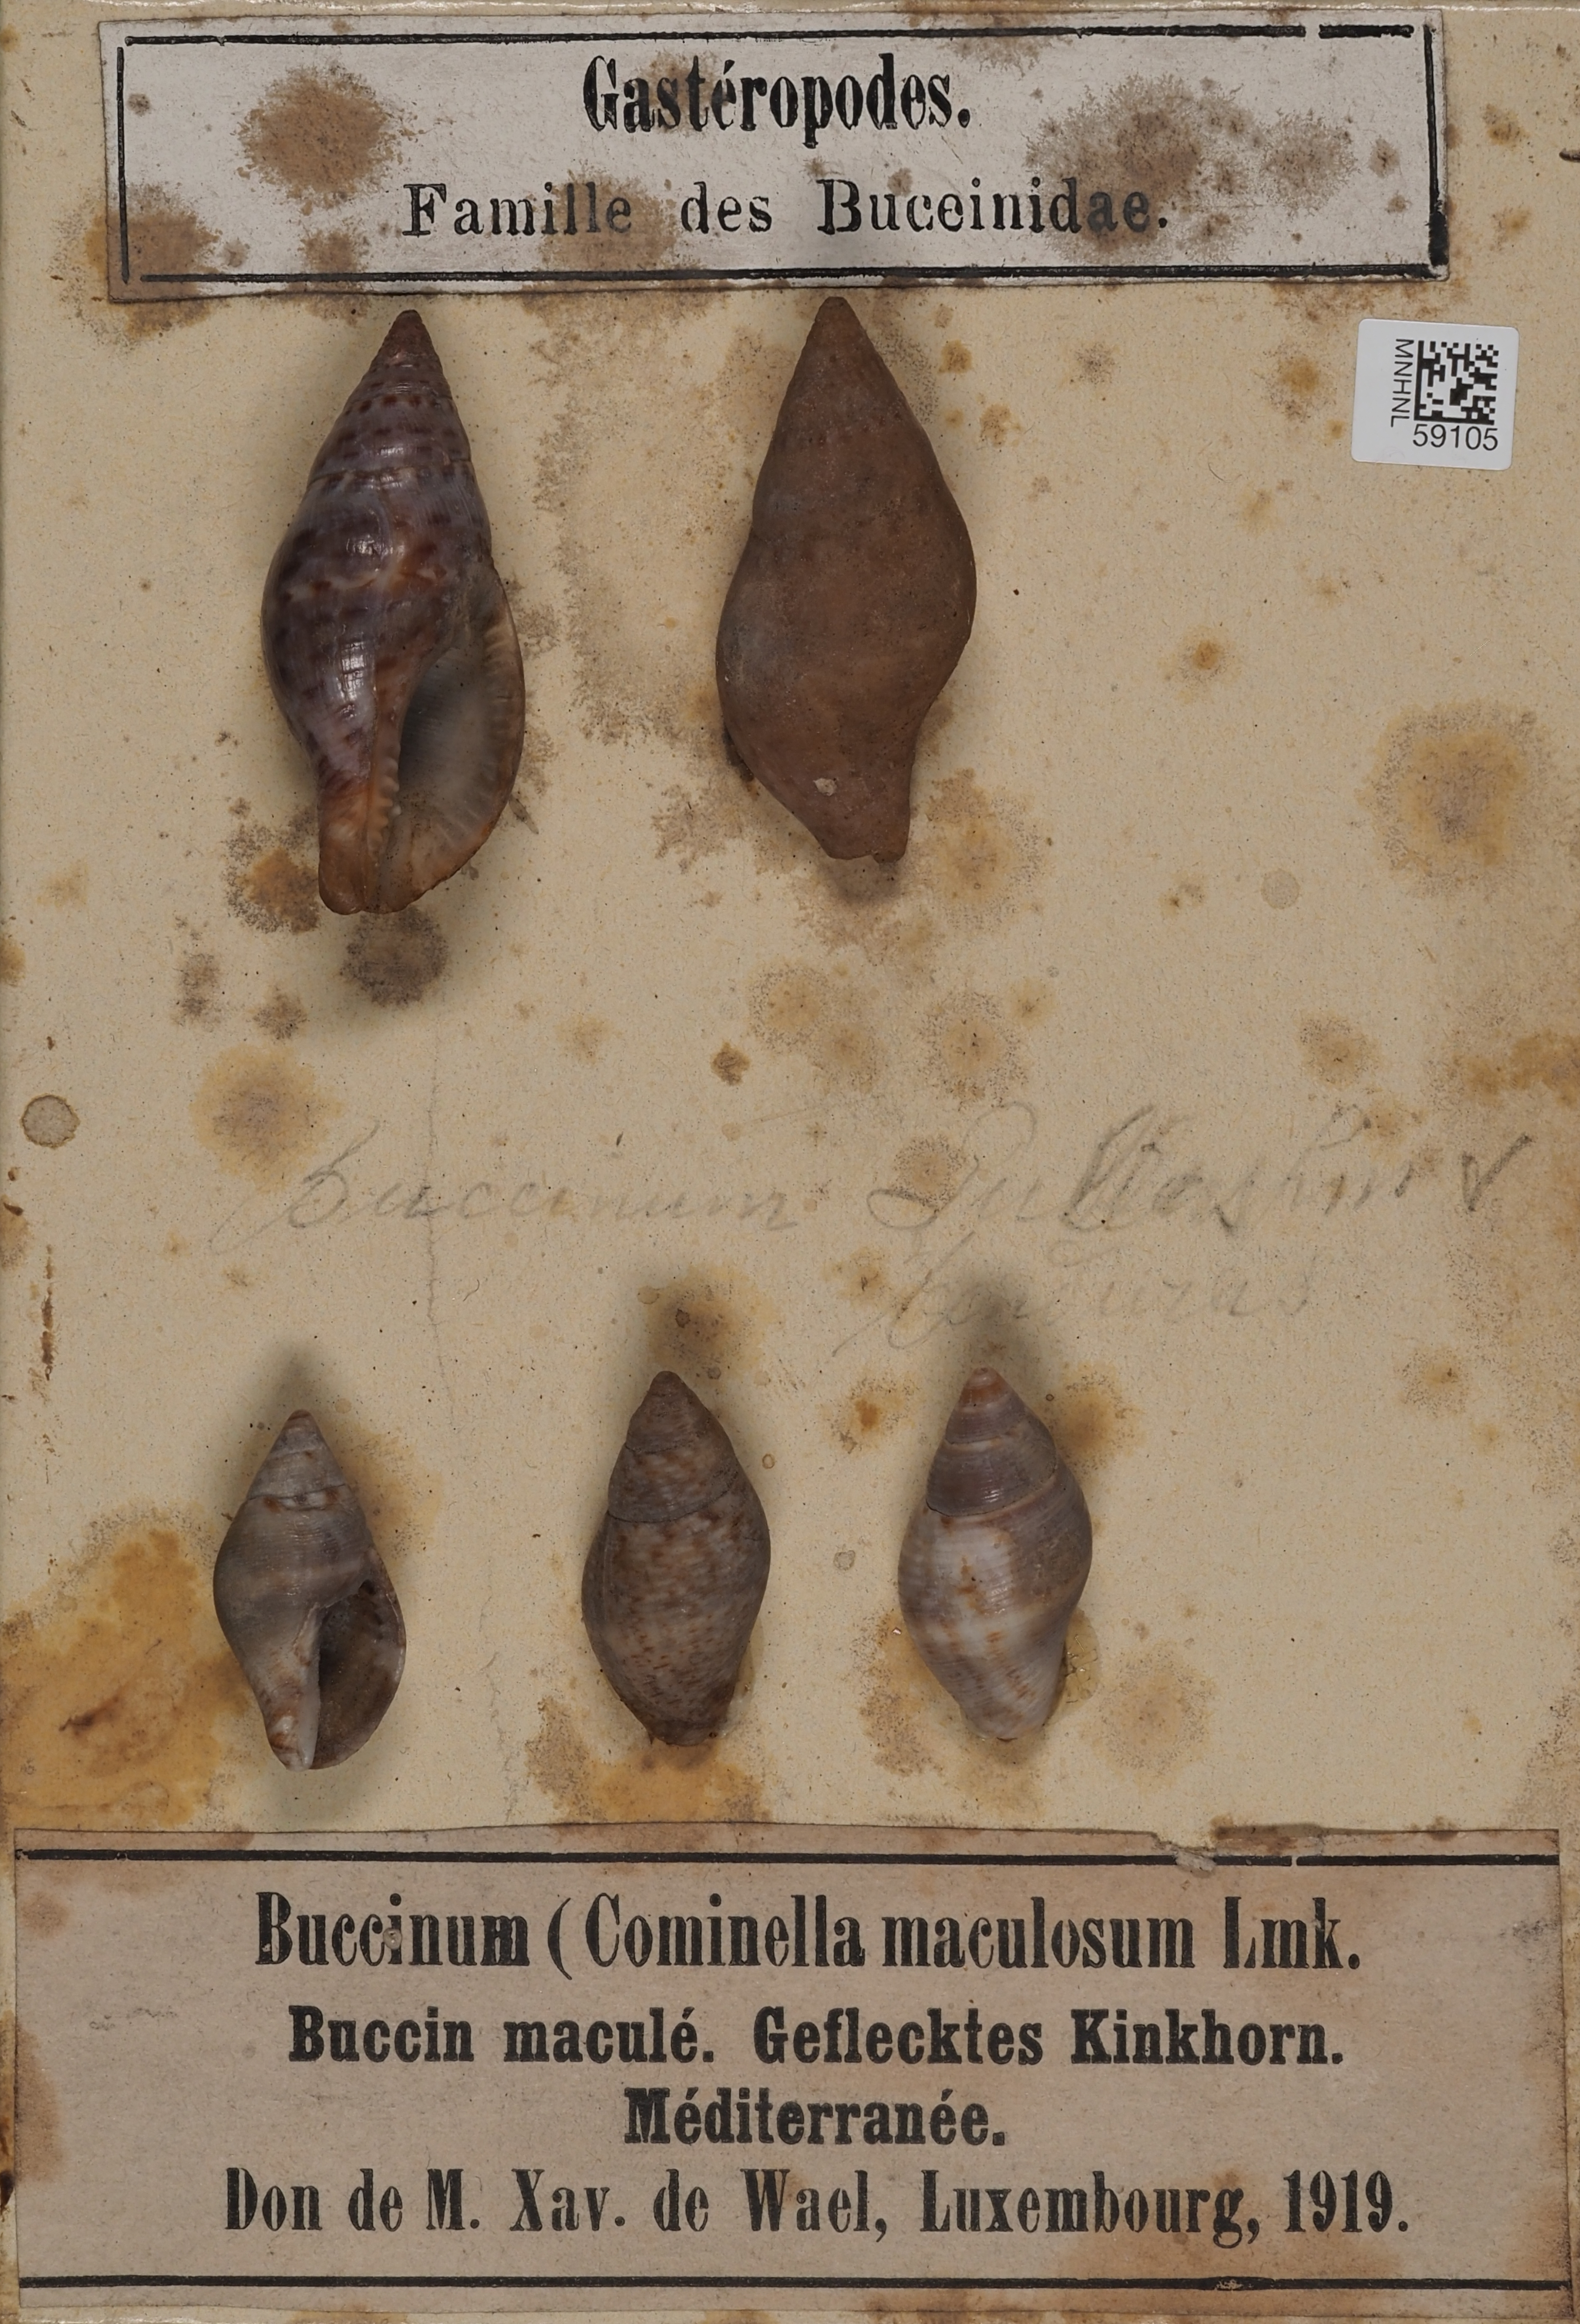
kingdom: Animalia
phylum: Mollusca
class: Gastropoda
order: Littorinimorpha
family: Tonnidae
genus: Tonna
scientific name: Tonna pennata
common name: Atlantic partridge tun
